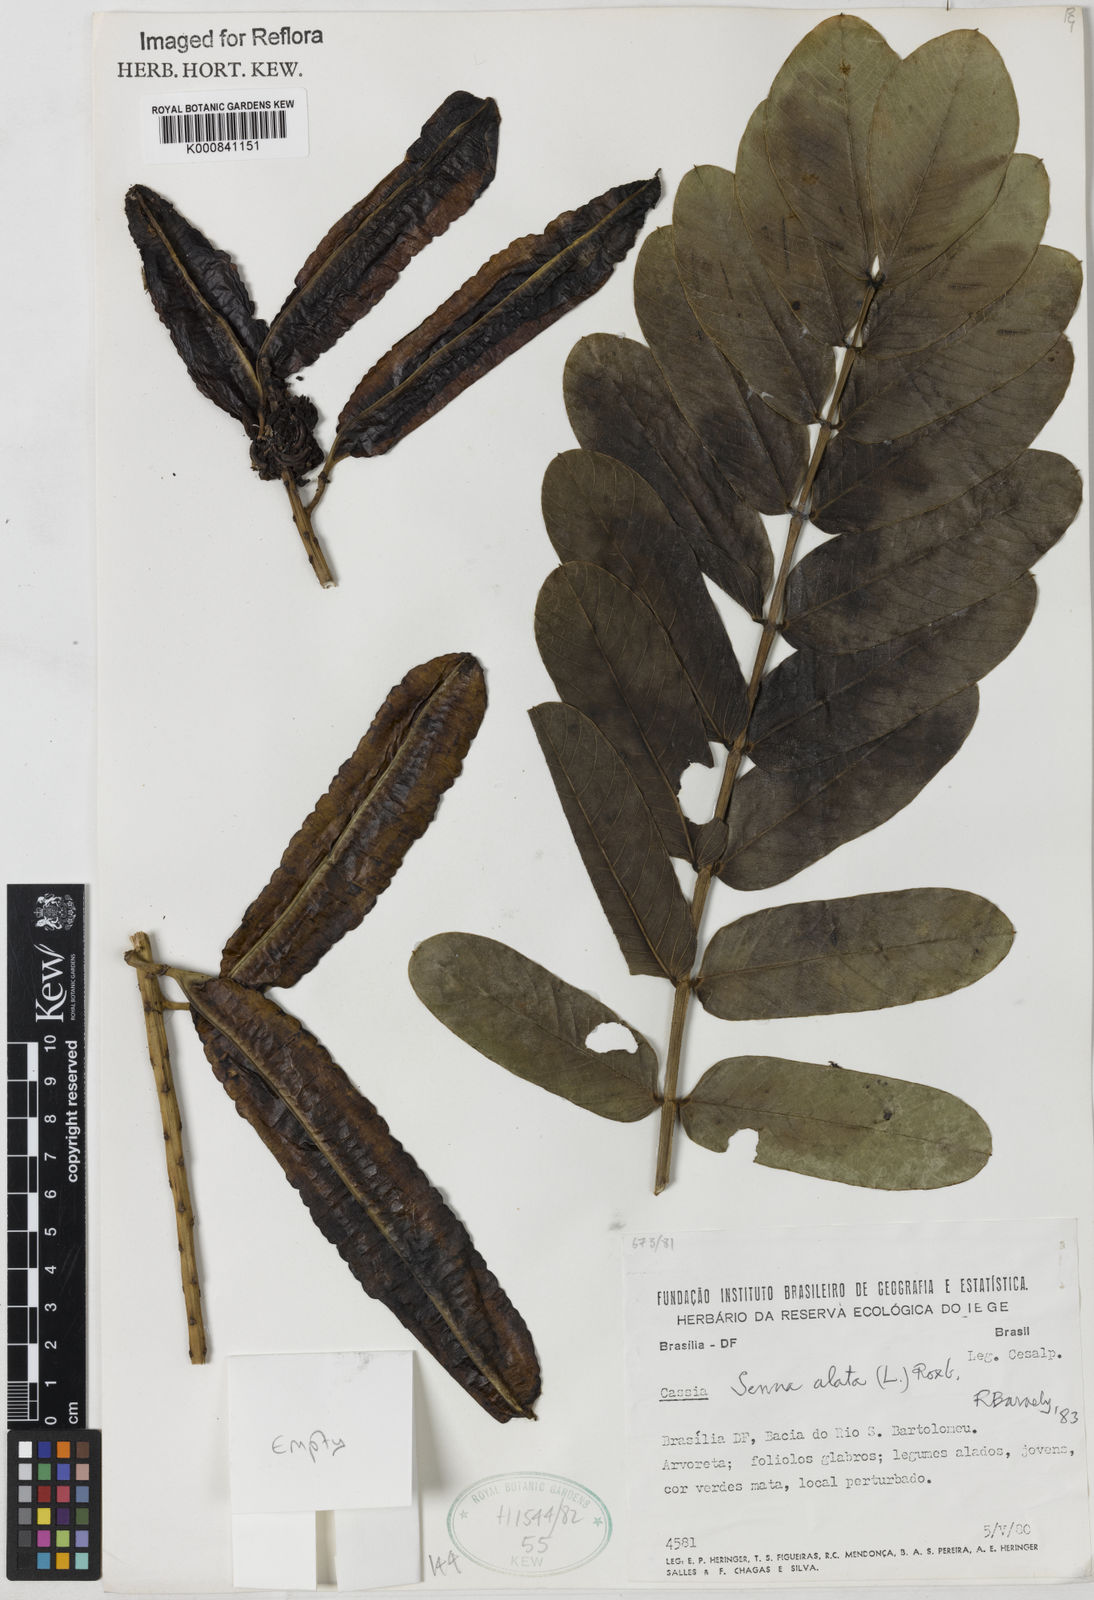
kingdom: Plantae
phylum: Tracheophyta
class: Magnoliopsida
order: Fabales
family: Fabaceae
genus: Senna
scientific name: Senna alata
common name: Emperor's candlesticks
